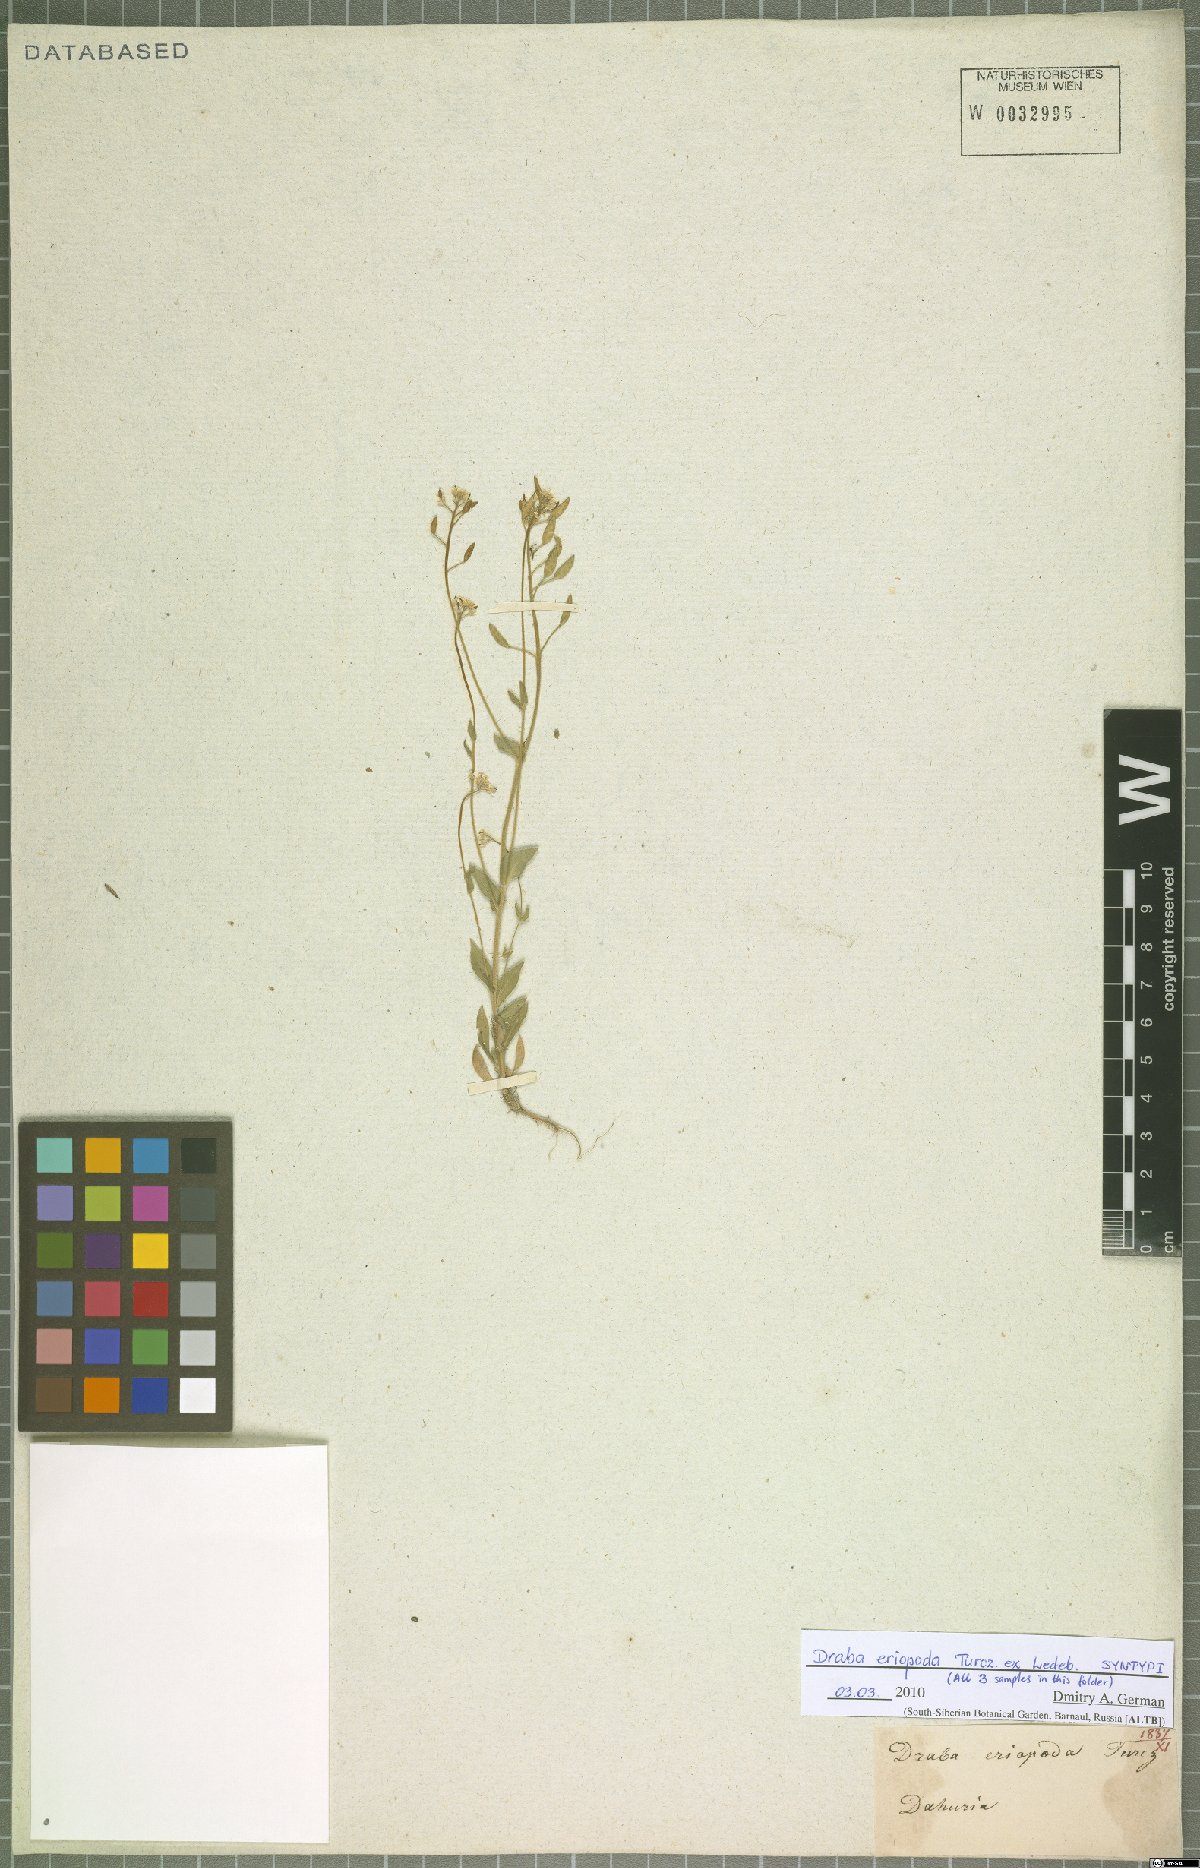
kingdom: Plantae
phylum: Tracheophyta
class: Magnoliopsida
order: Brassicales
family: Brassicaceae
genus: Draba
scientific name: Draba eriopoda
